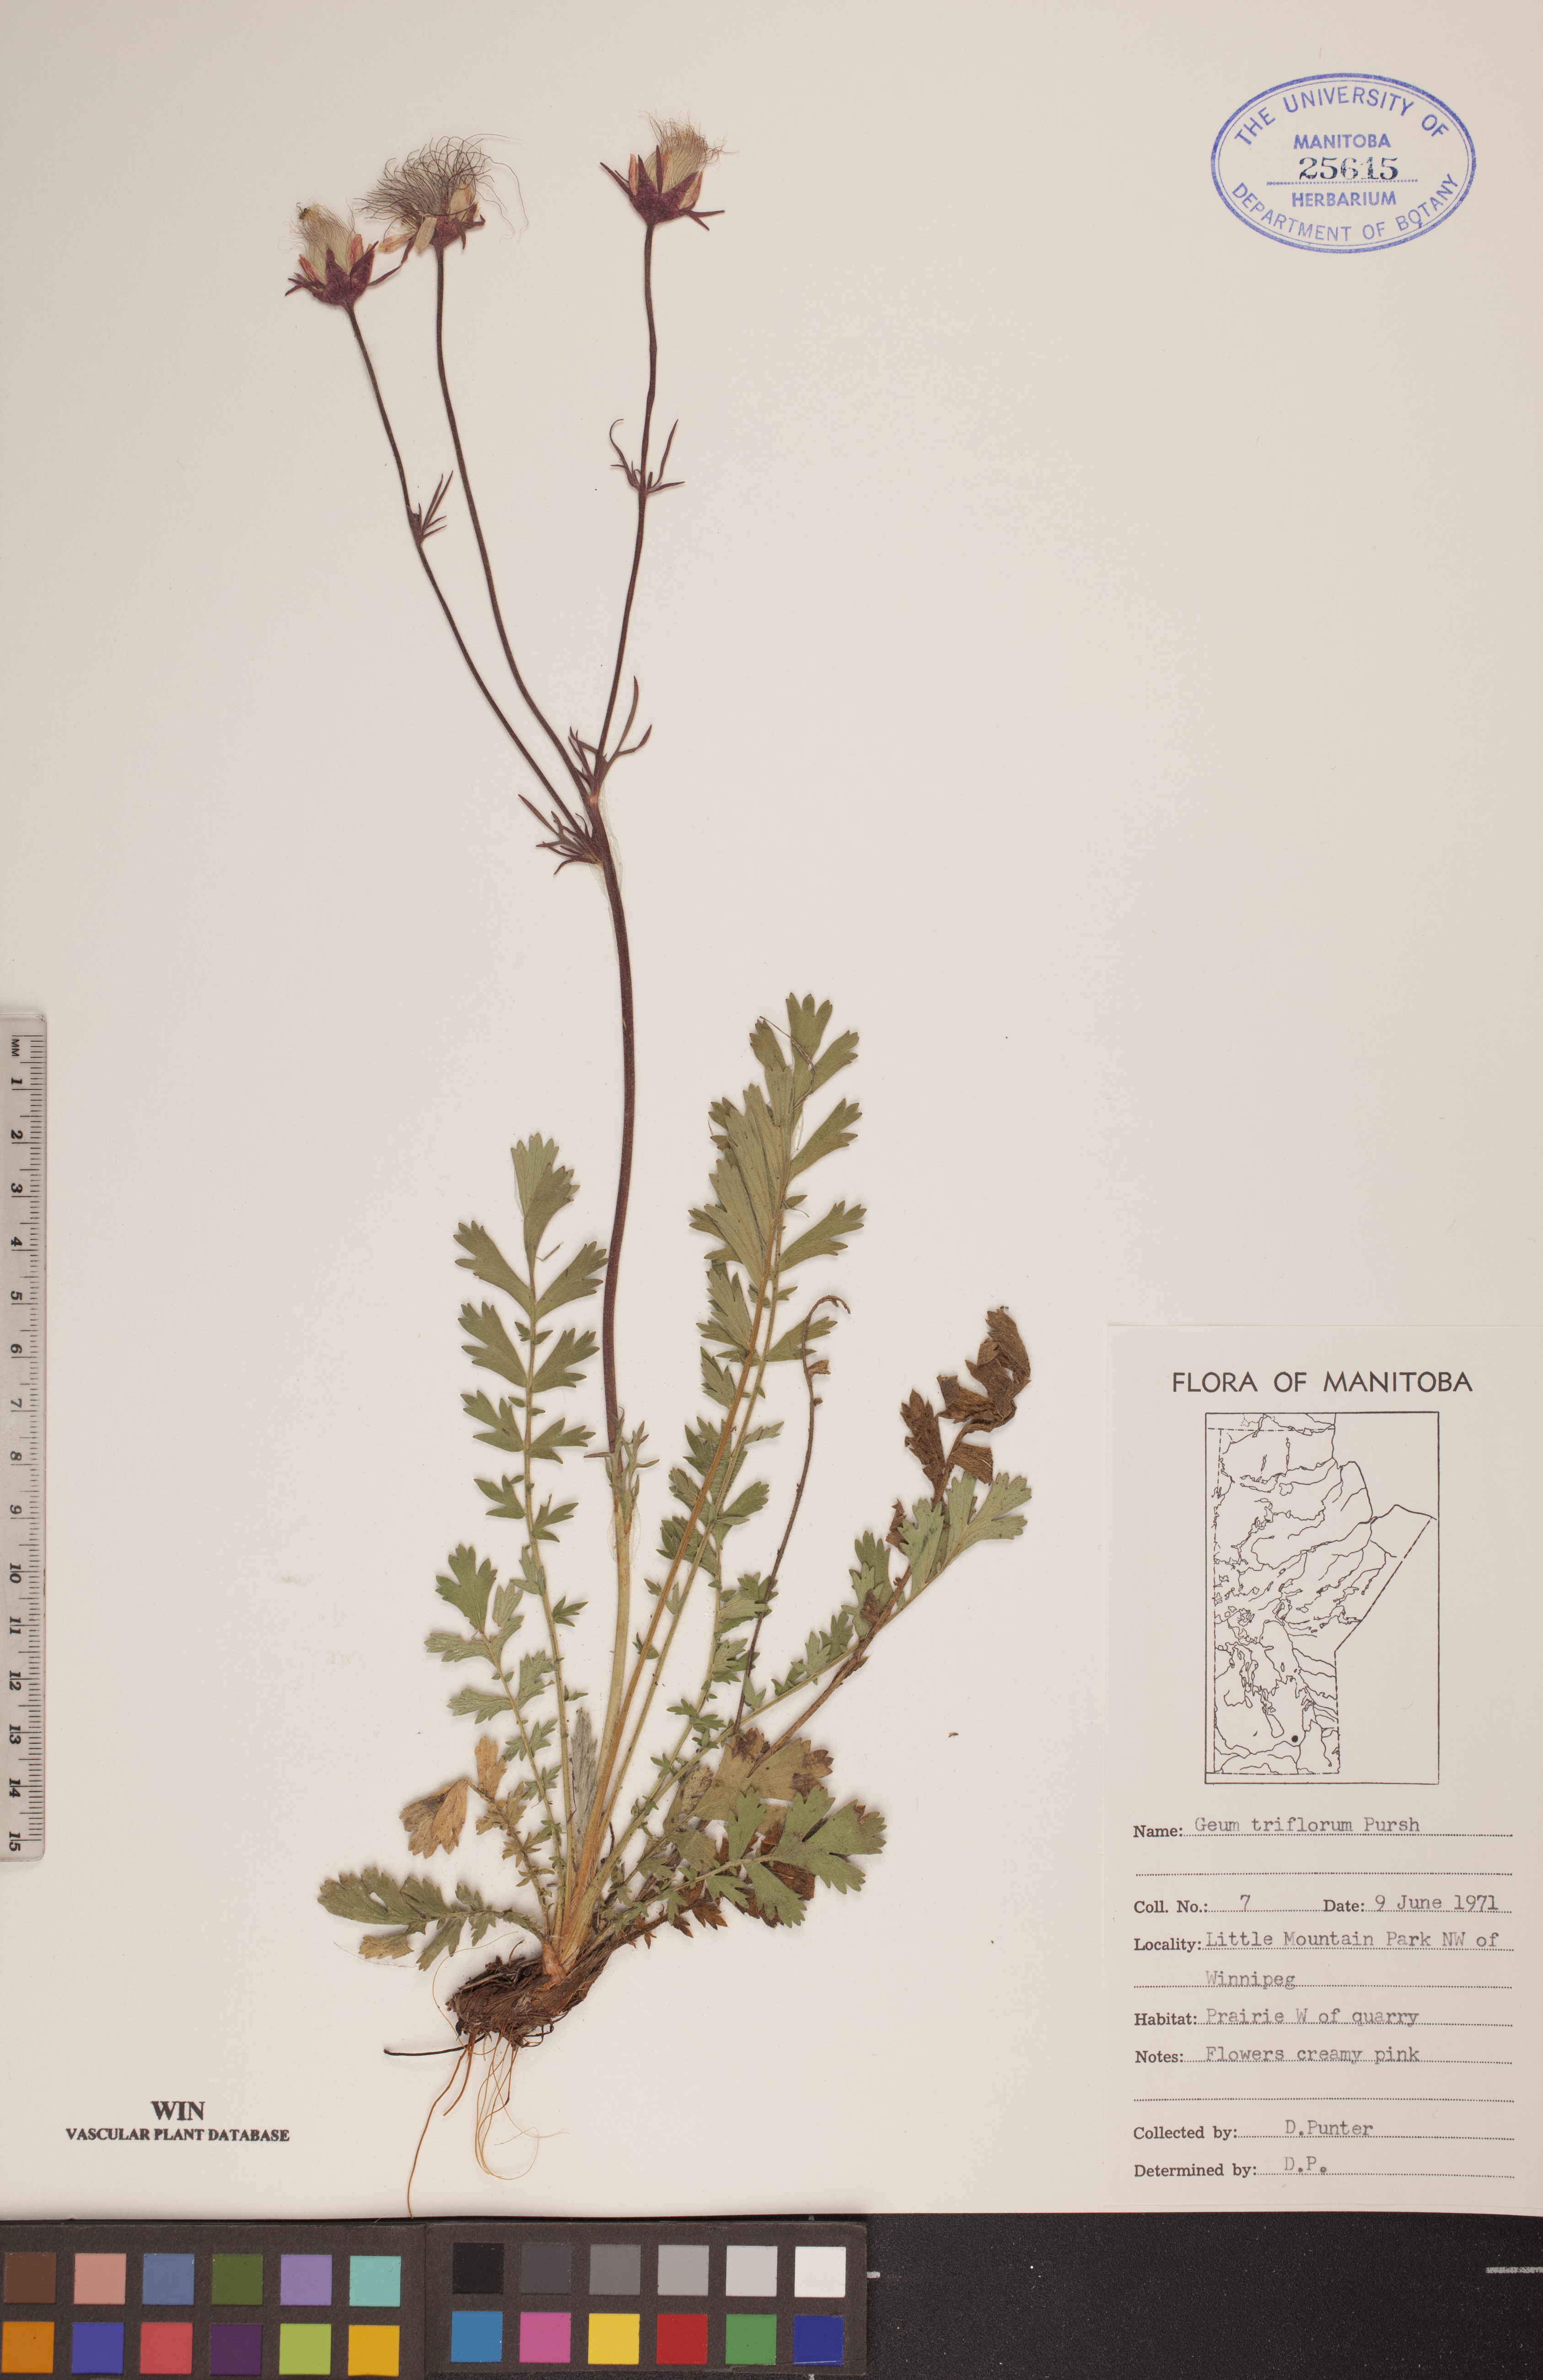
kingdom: Plantae
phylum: Tracheophyta
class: Magnoliopsida
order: Rosales
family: Rosaceae
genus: Geum
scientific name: Geum triflorum
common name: Old man's whiskers
